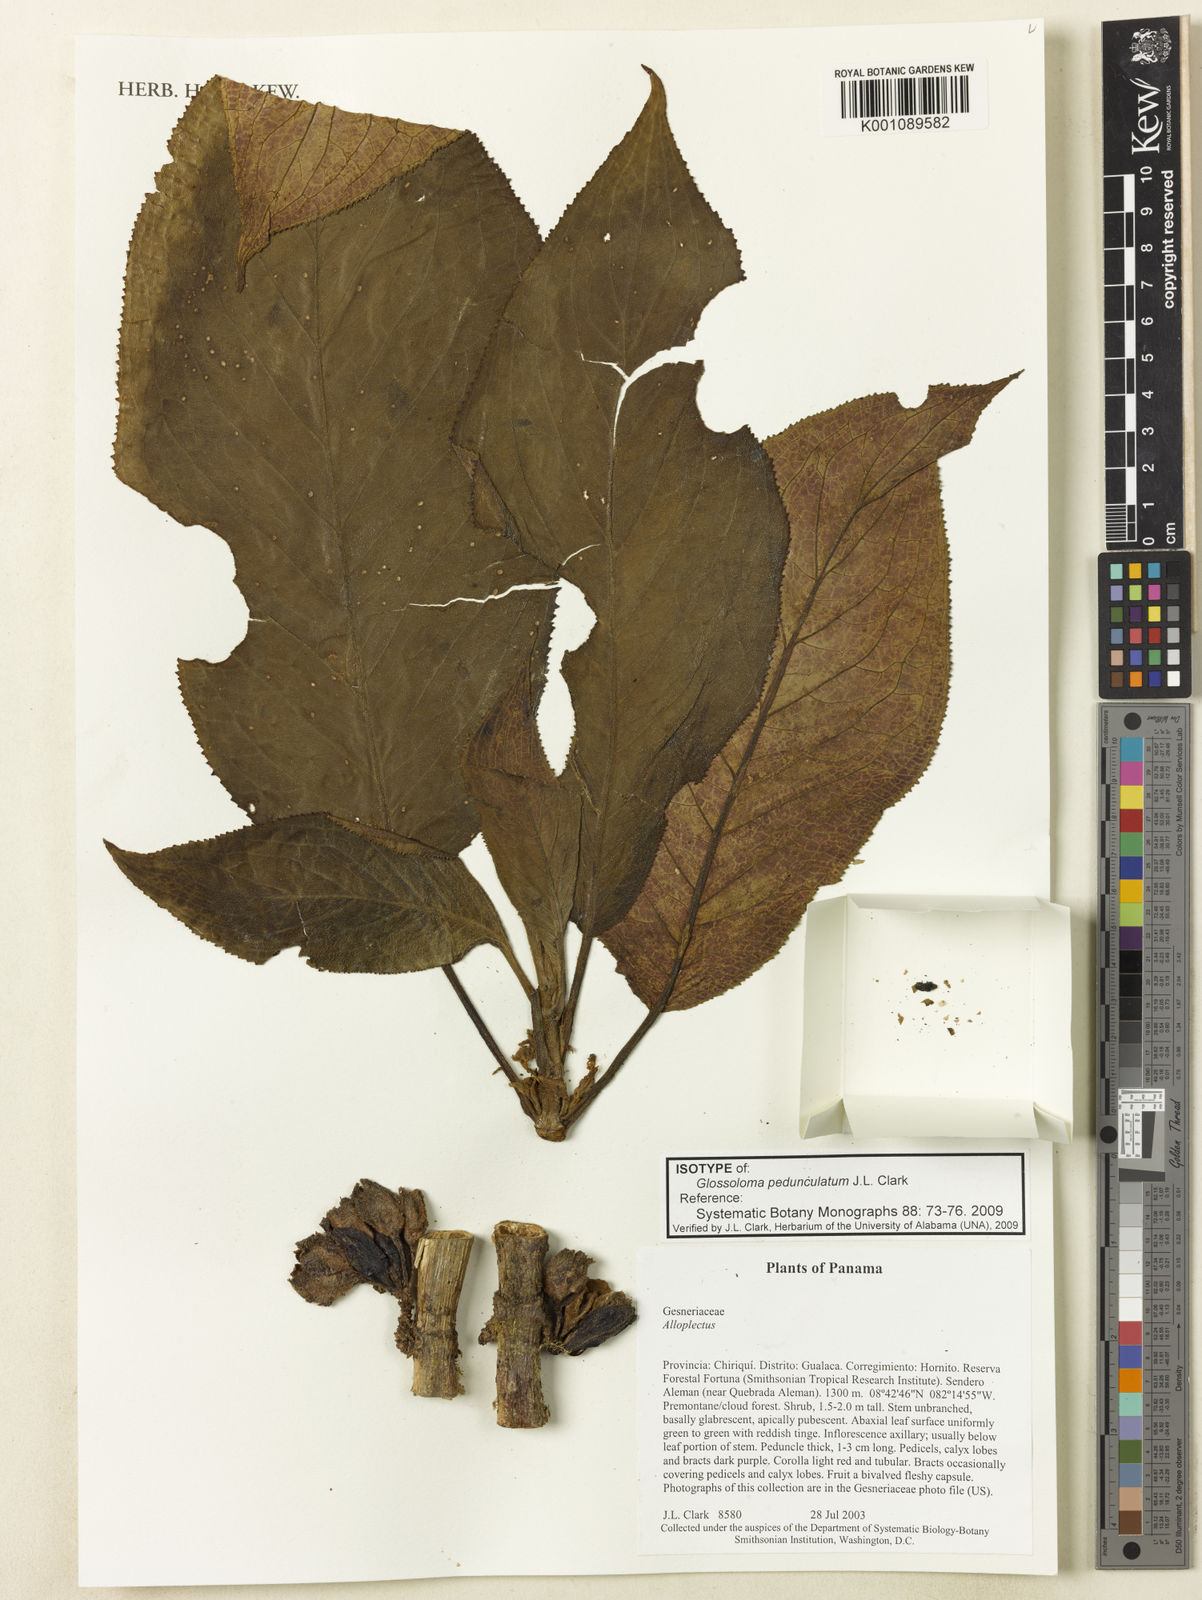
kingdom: Plantae
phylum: Tracheophyta
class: Magnoliopsida
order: Lamiales
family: Gesneriaceae
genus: Glossoloma
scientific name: Glossoloma pedunculatum
